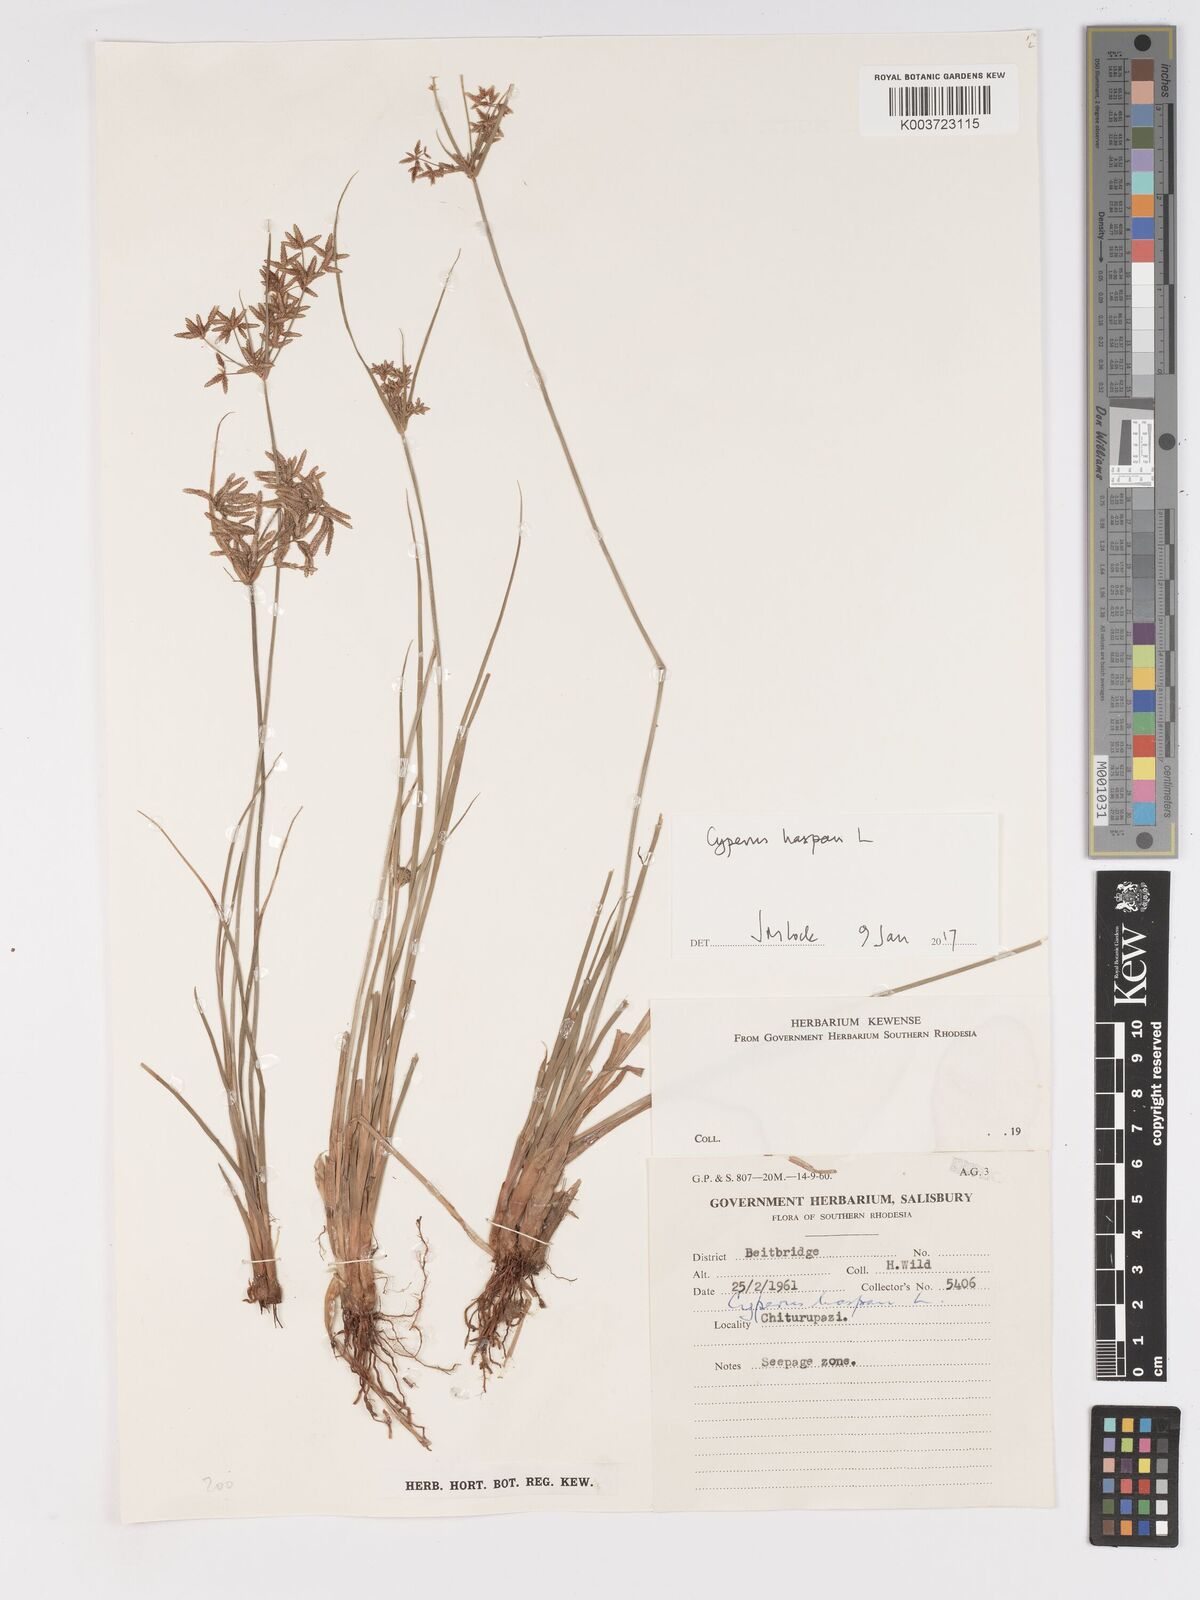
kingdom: Plantae
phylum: Tracheophyta
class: Liliopsida
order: Poales
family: Cyperaceae
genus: Cyperus
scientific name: Cyperus haspan
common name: Haspan flatsedge
